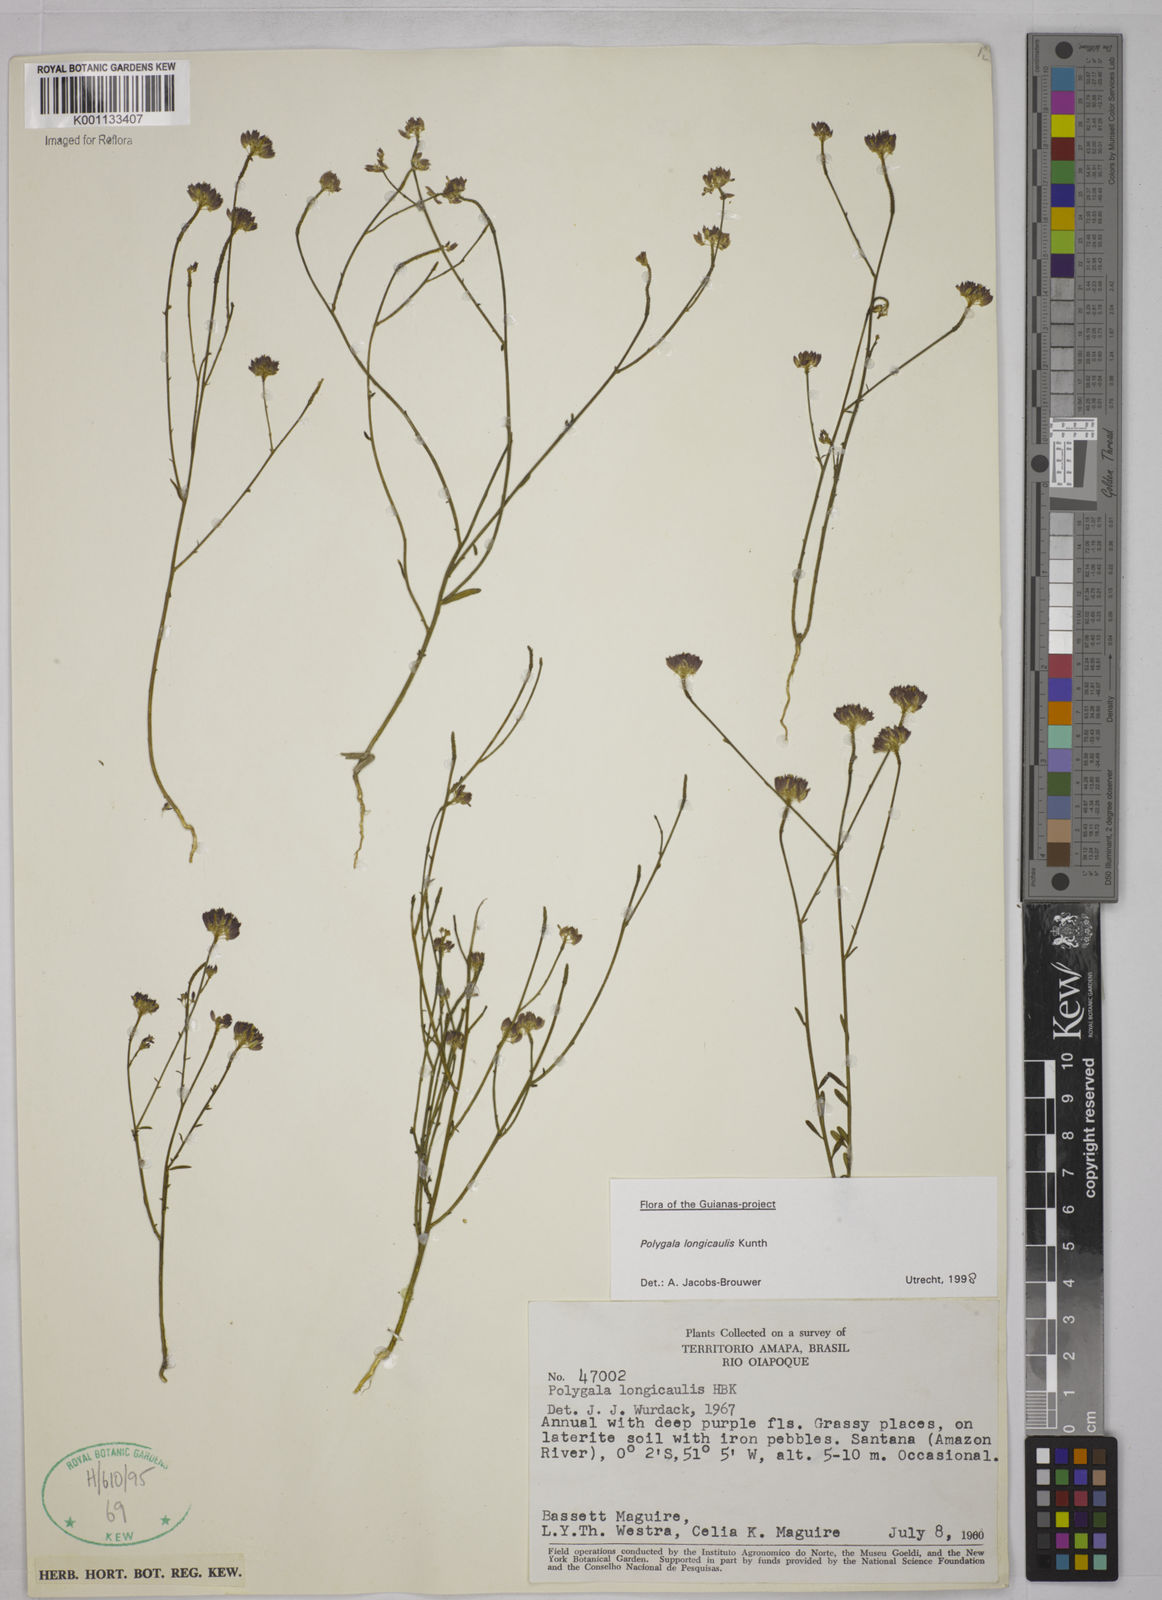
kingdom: Plantae
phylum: Tracheophyta
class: Magnoliopsida
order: Fabales
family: Polygalaceae
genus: Polygala
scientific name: Polygala longicaulis
